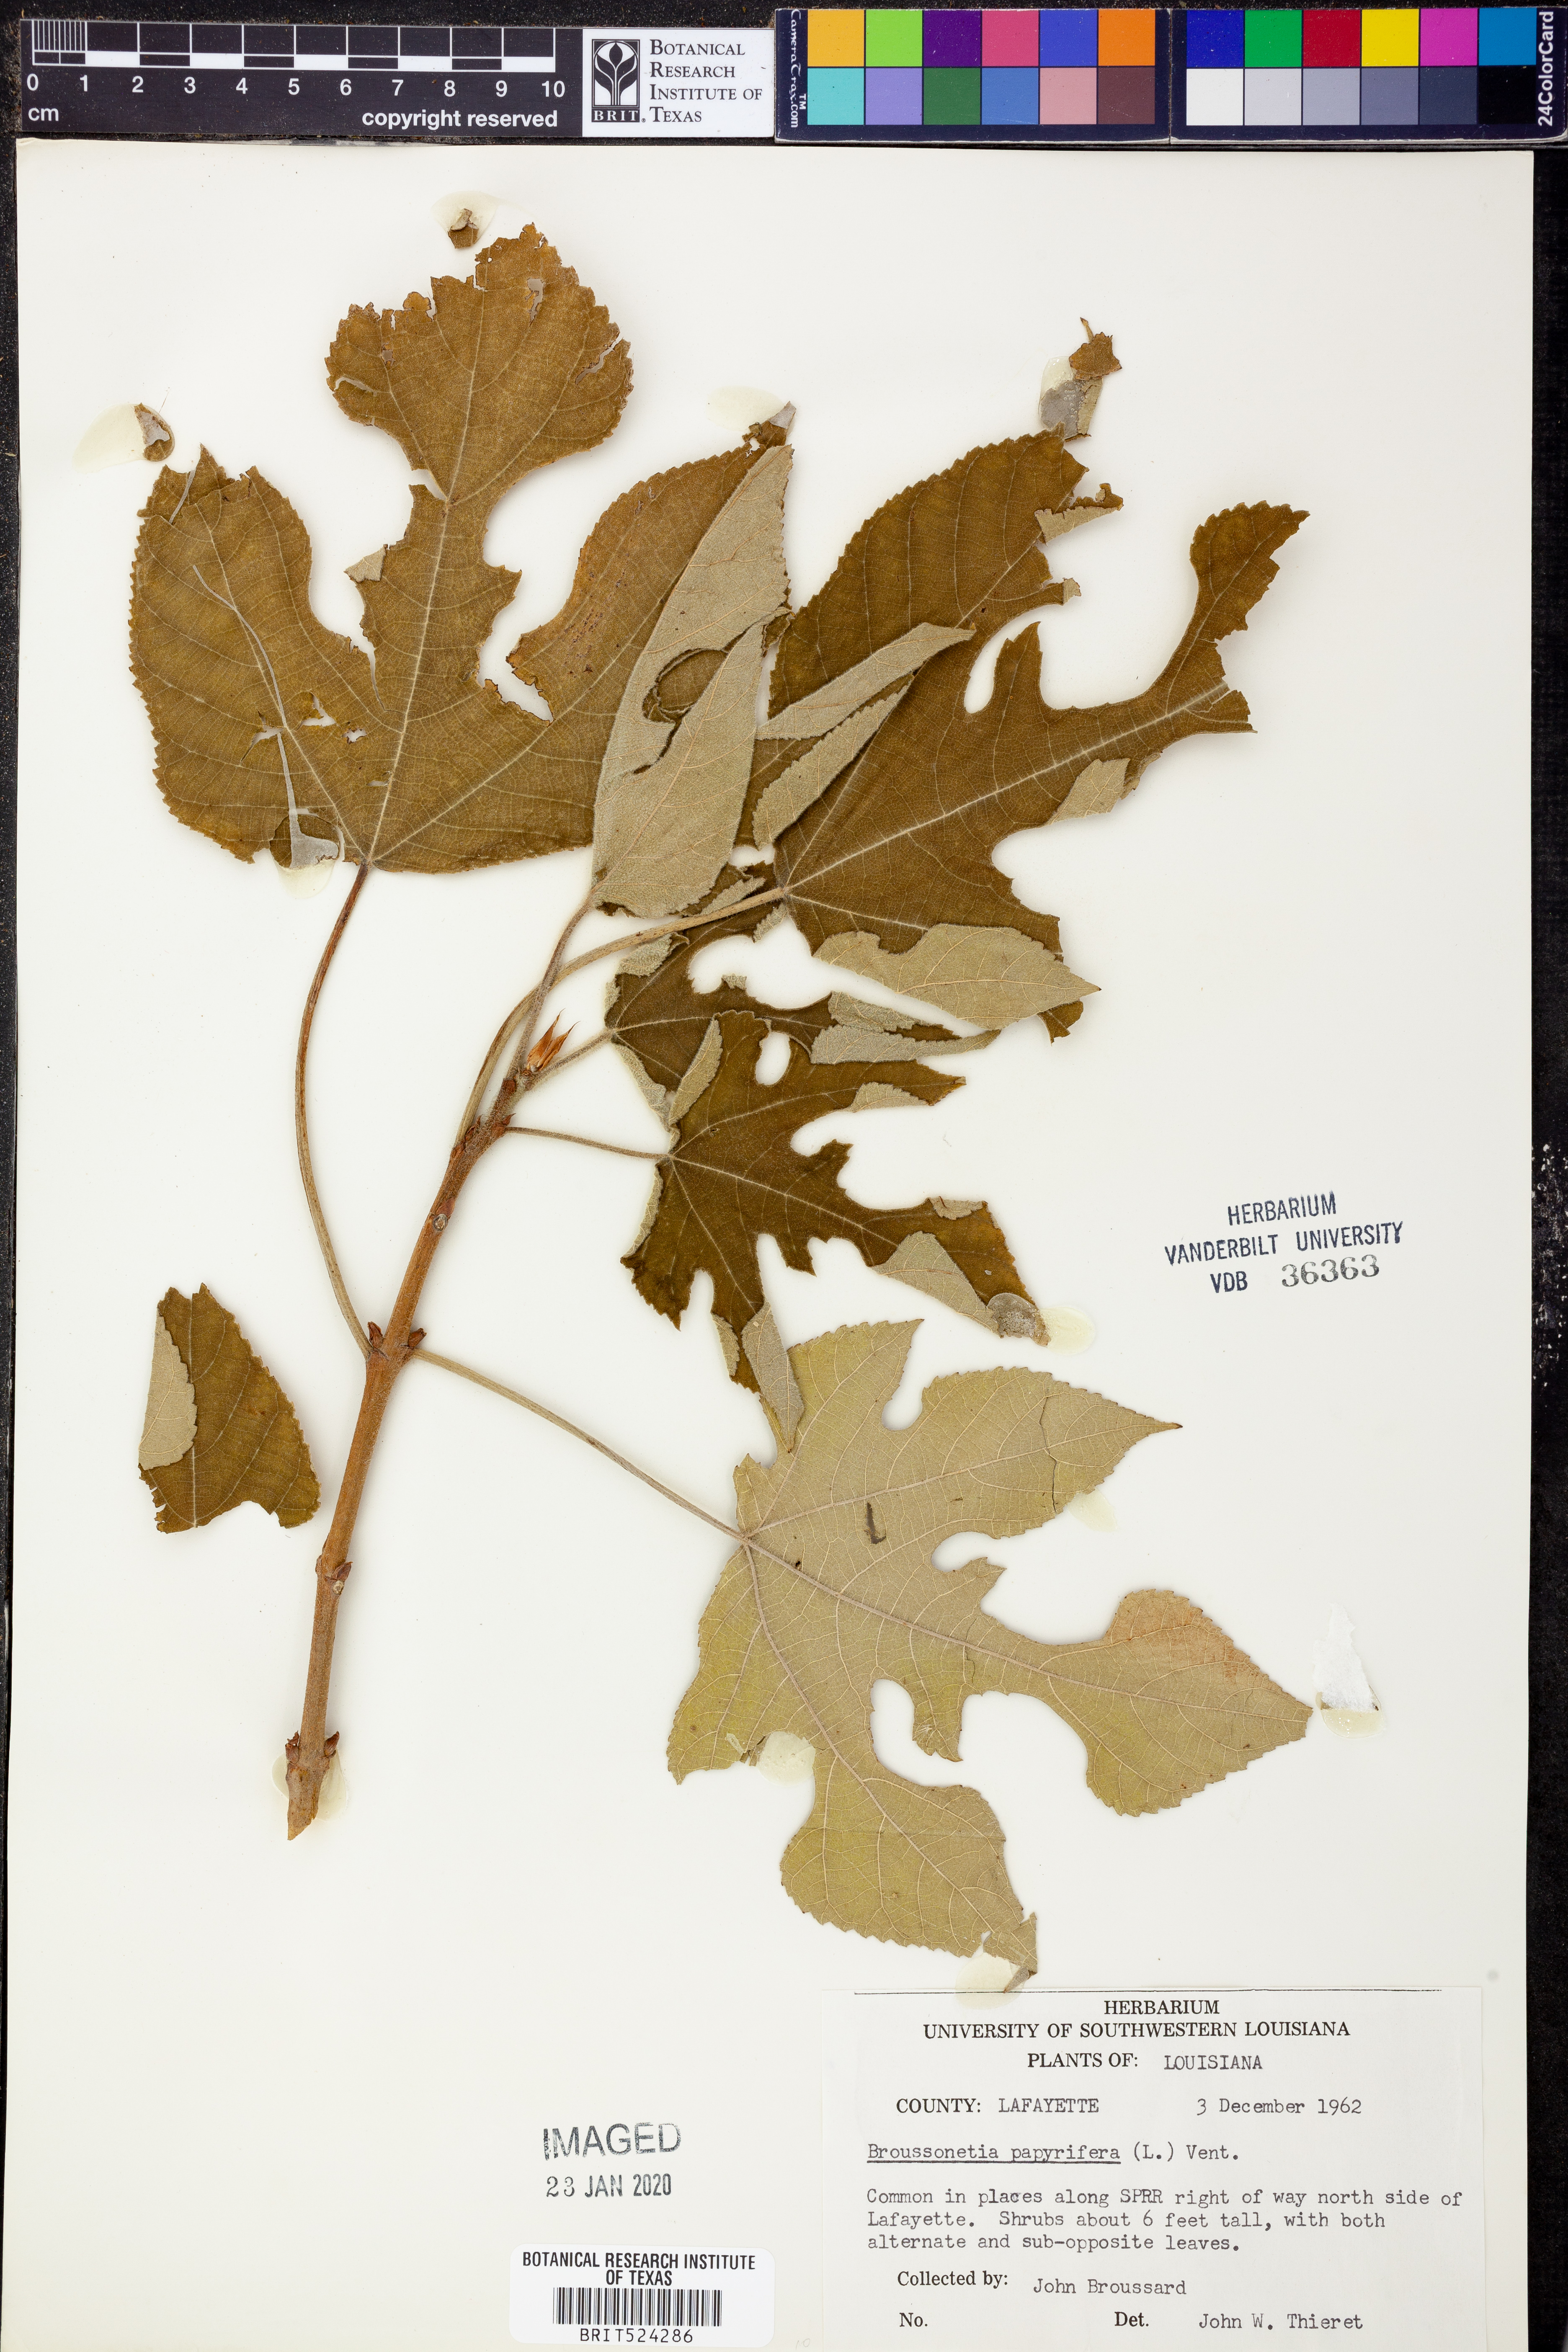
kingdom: Plantae
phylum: Tracheophyta
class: Magnoliopsida
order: Rosales
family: Moraceae
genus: Broussonetia
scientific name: Broussonetia papyrifera
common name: Paper mulberry
